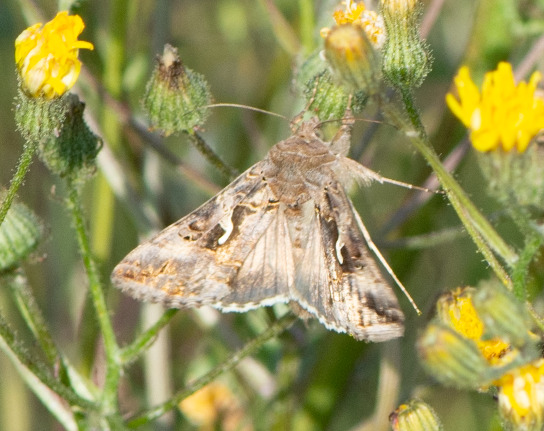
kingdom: Animalia
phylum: Arthropoda
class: Insecta
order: Lepidoptera
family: Noctuidae
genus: Autographa
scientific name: Autographa gamma
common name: Gammaugle
